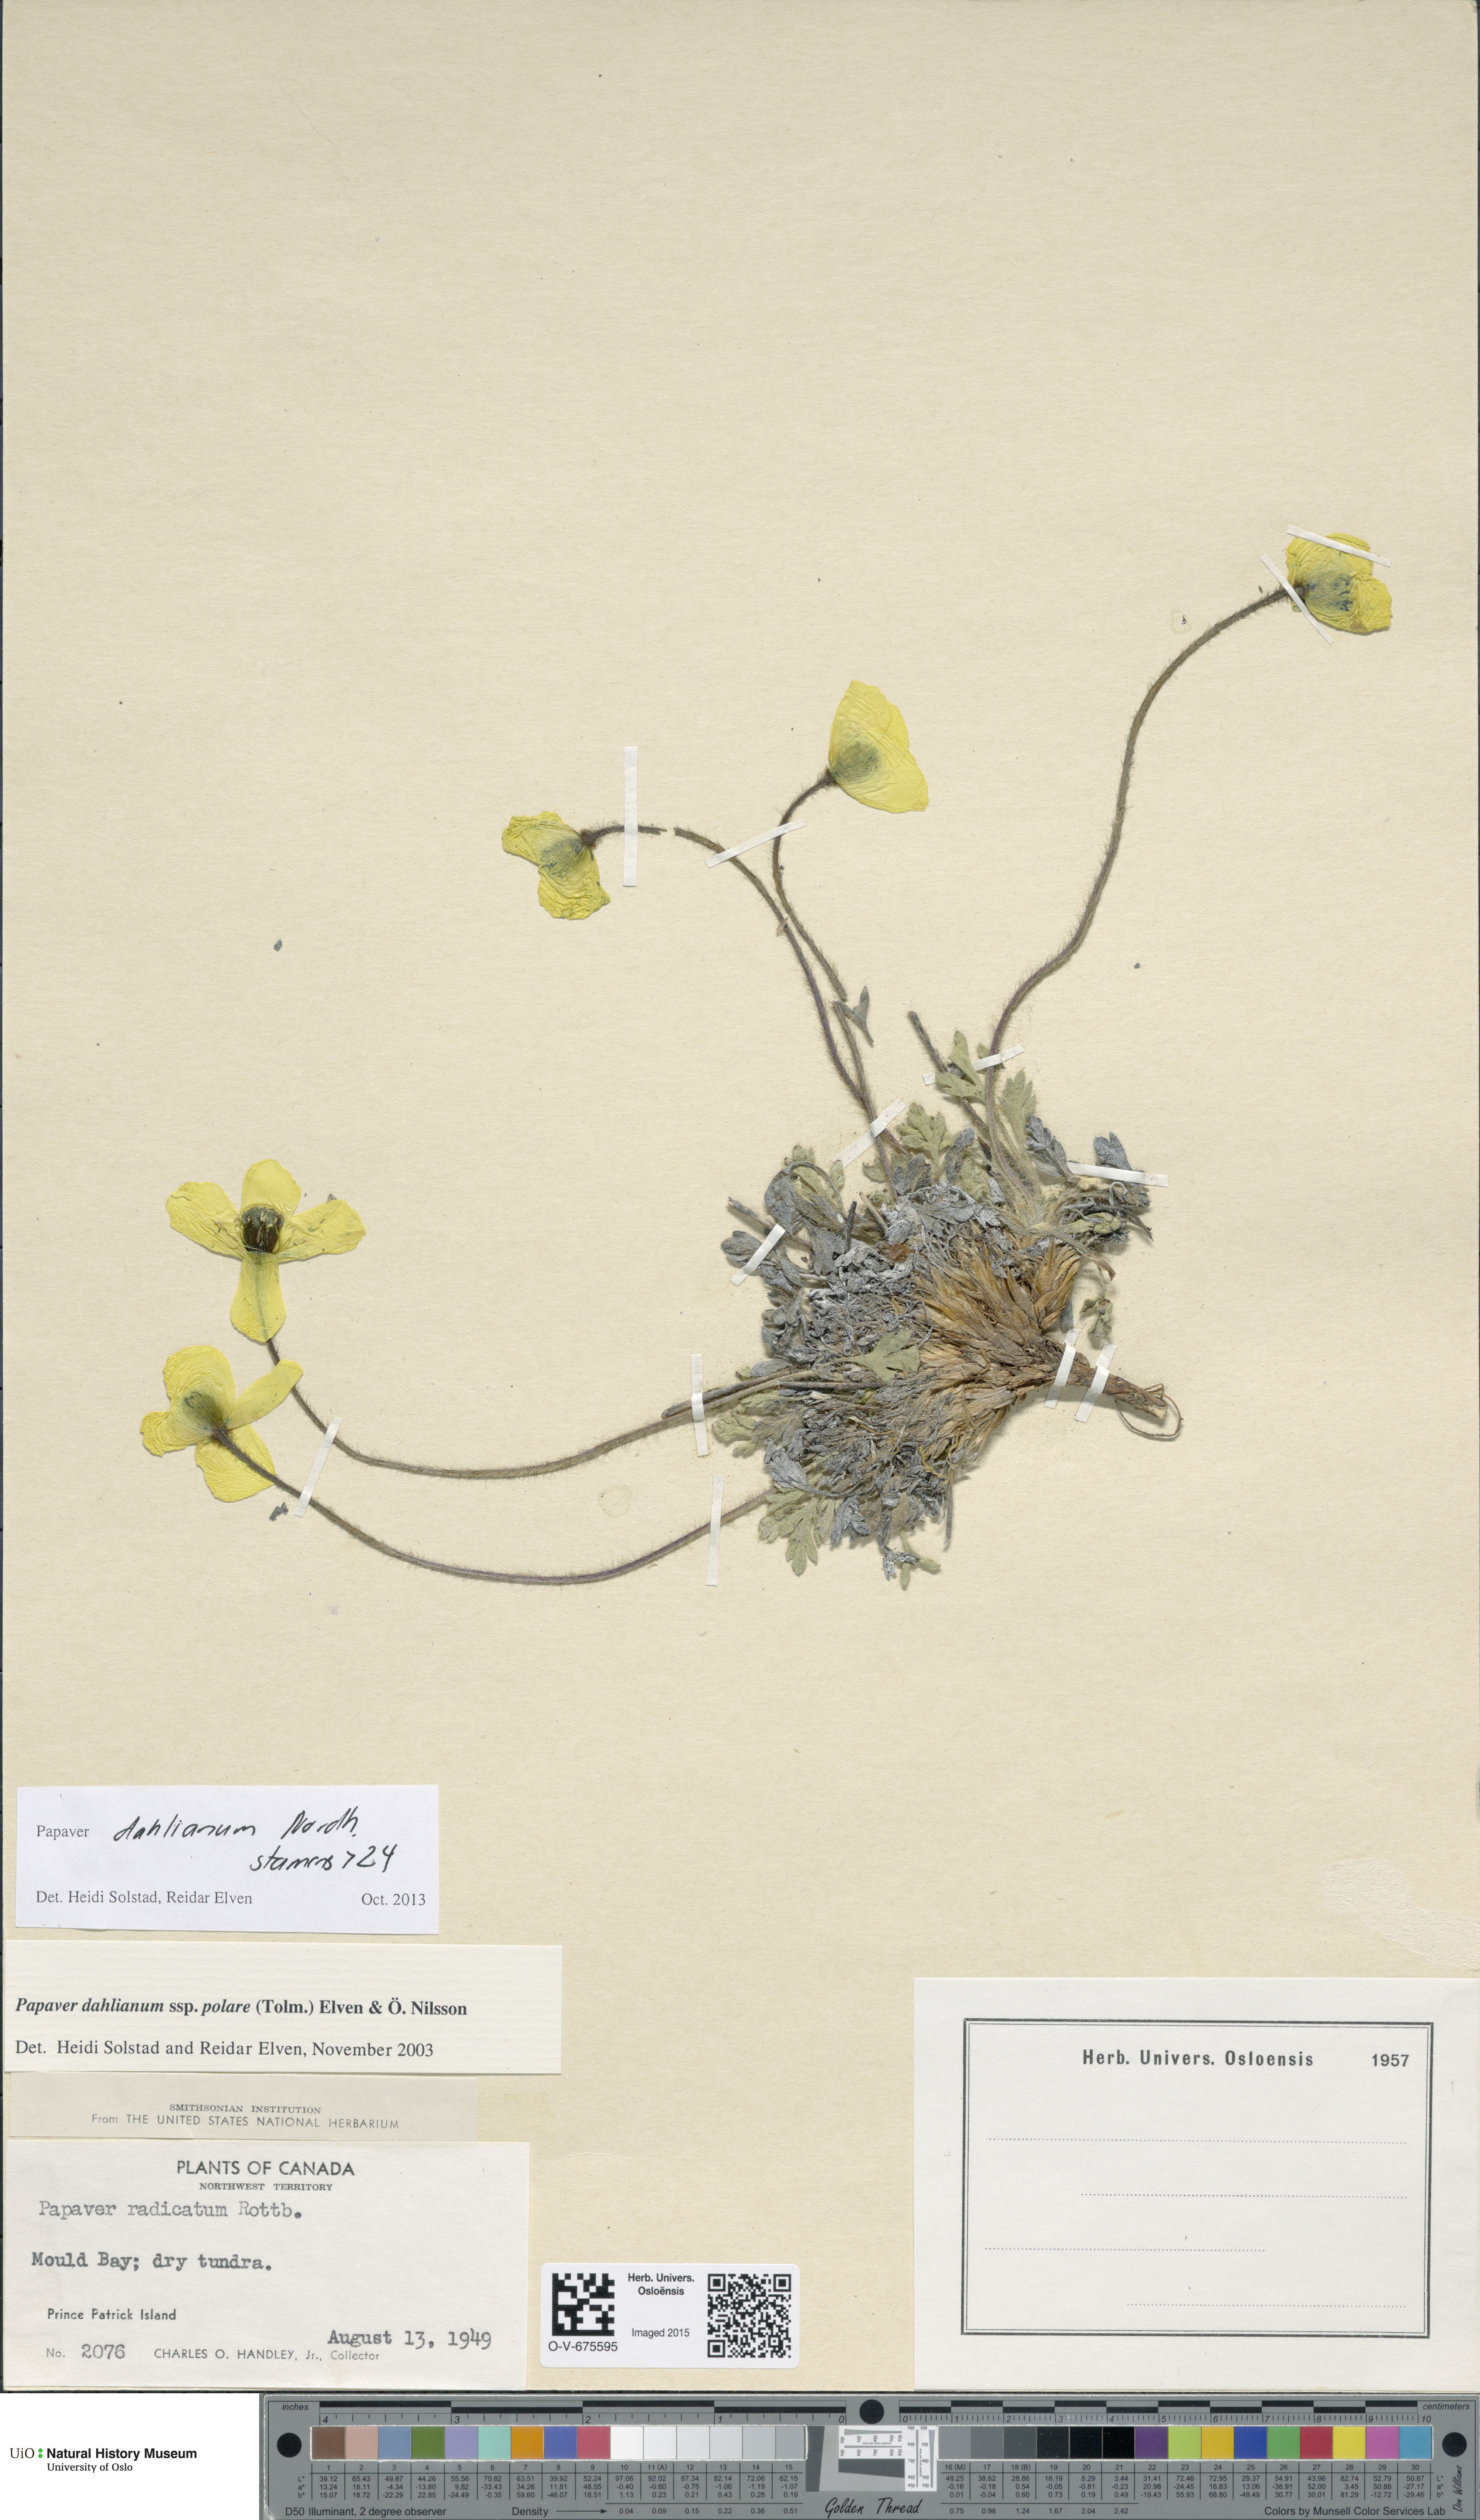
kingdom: Plantae
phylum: Tracheophyta
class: Magnoliopsida
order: Ranunculales
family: Papaveraceae
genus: Papaver
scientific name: Papaver radicatum
